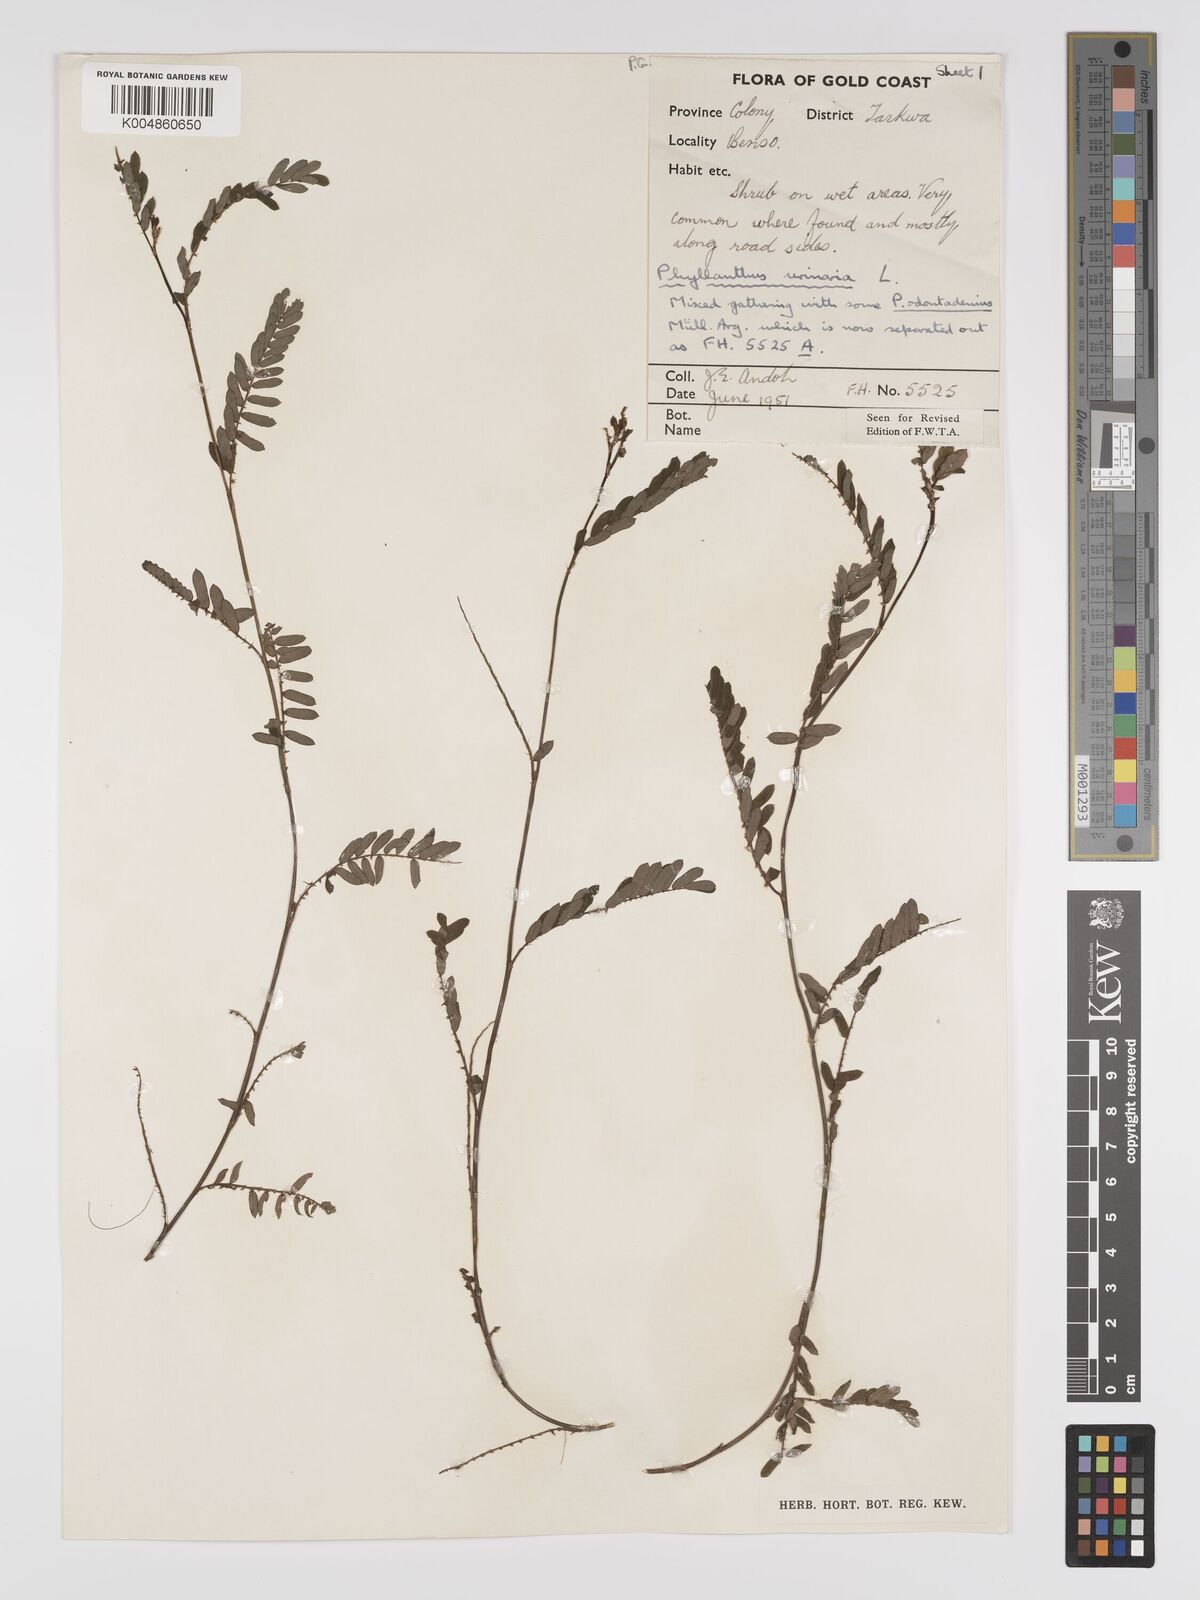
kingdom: Plantae
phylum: Tracheophyta
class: Magnoliopsida
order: Malpighiales
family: Phyllanthaceae
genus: Phyllanthus
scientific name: Phyllanthus urinaria
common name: Chamber bitter
